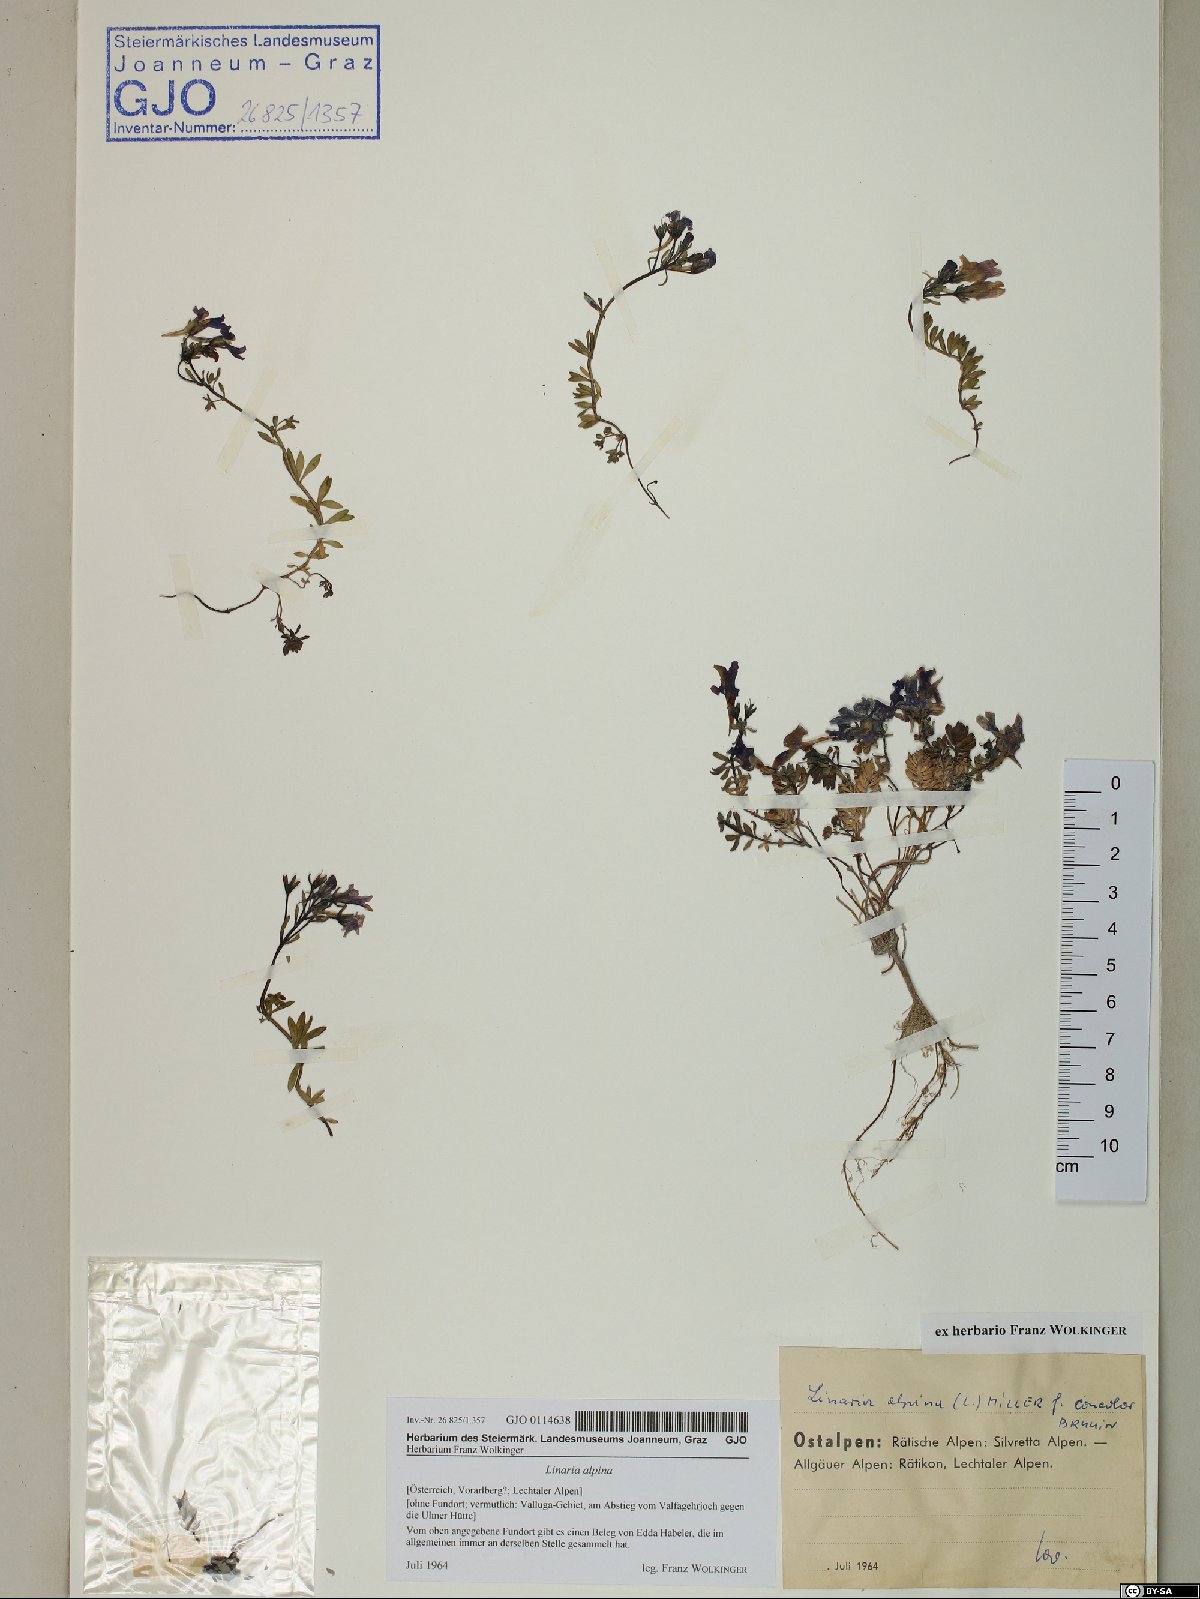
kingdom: Plantae
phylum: Tracheophyta
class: Magnoliopsida
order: Lamiales
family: Plantaginaceae
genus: Linaria
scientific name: Linaria alpina
